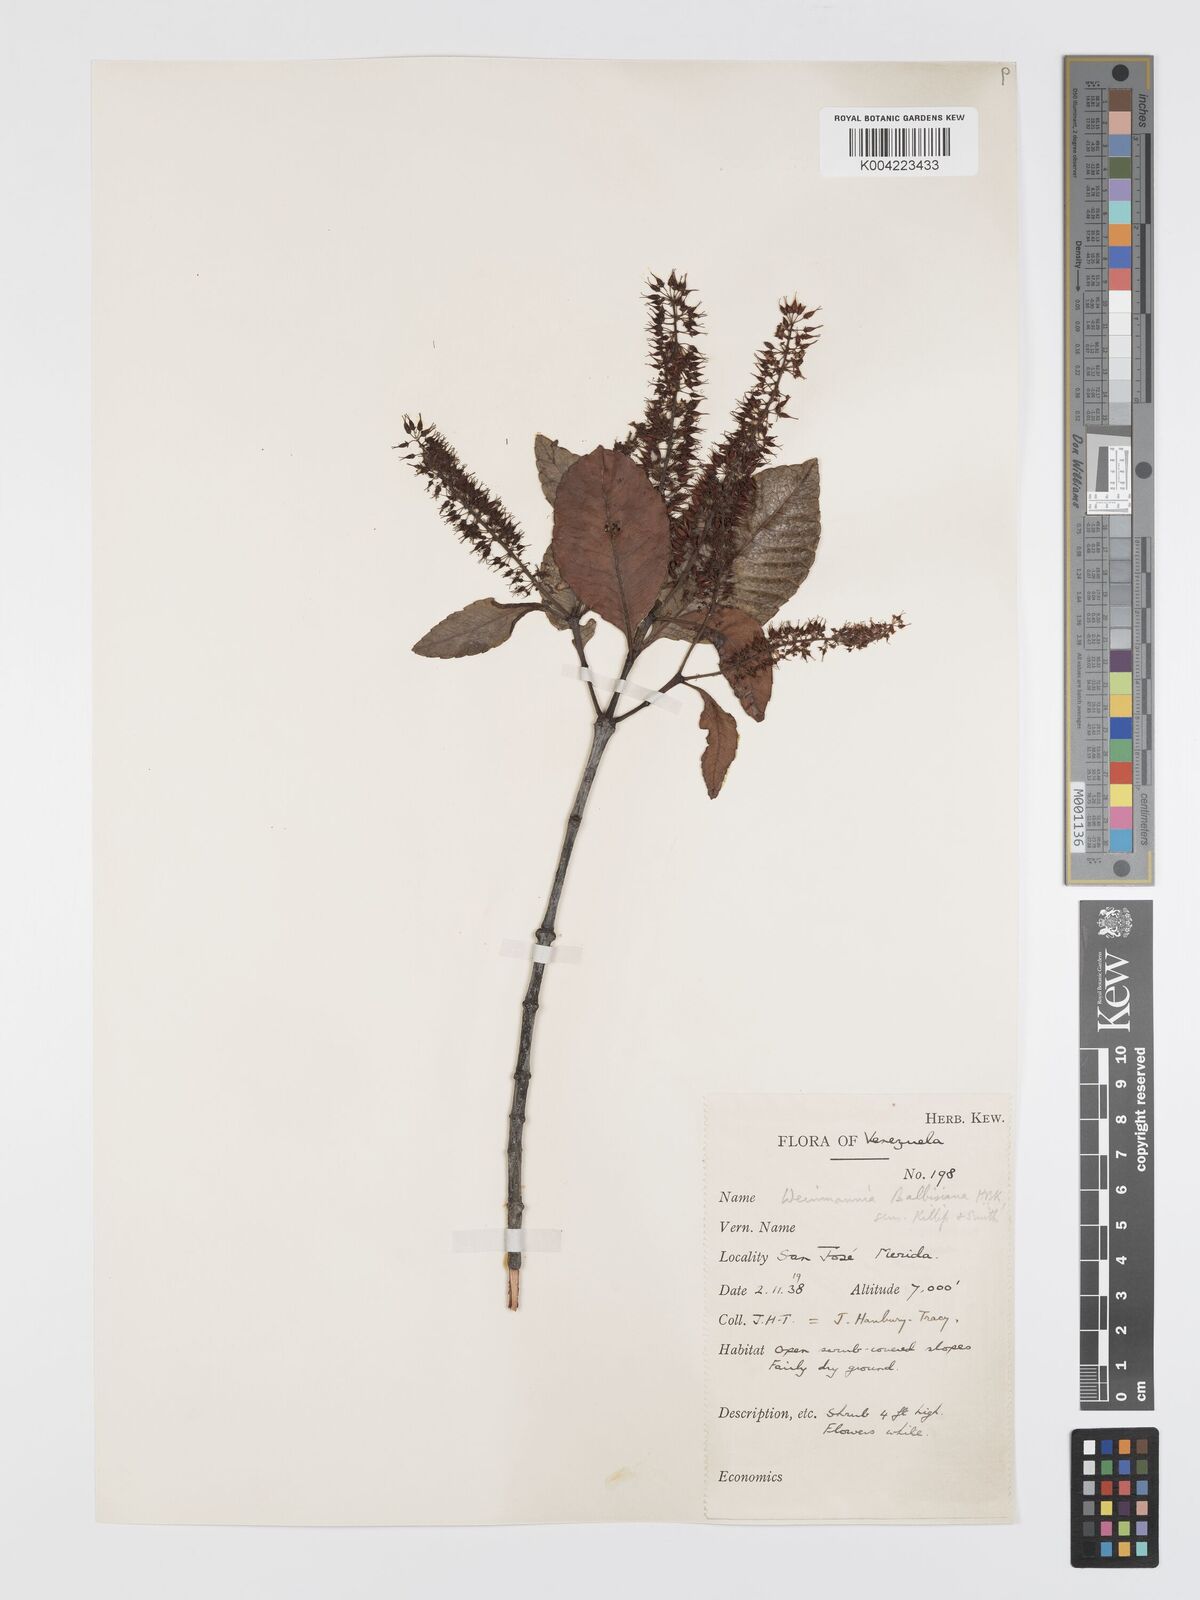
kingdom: Plantae
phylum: Tracheophyta
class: Magnoliopsida
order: Oxalidales
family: Cunoniaceae
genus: Weinmannia
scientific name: Weinmannia balbisana
